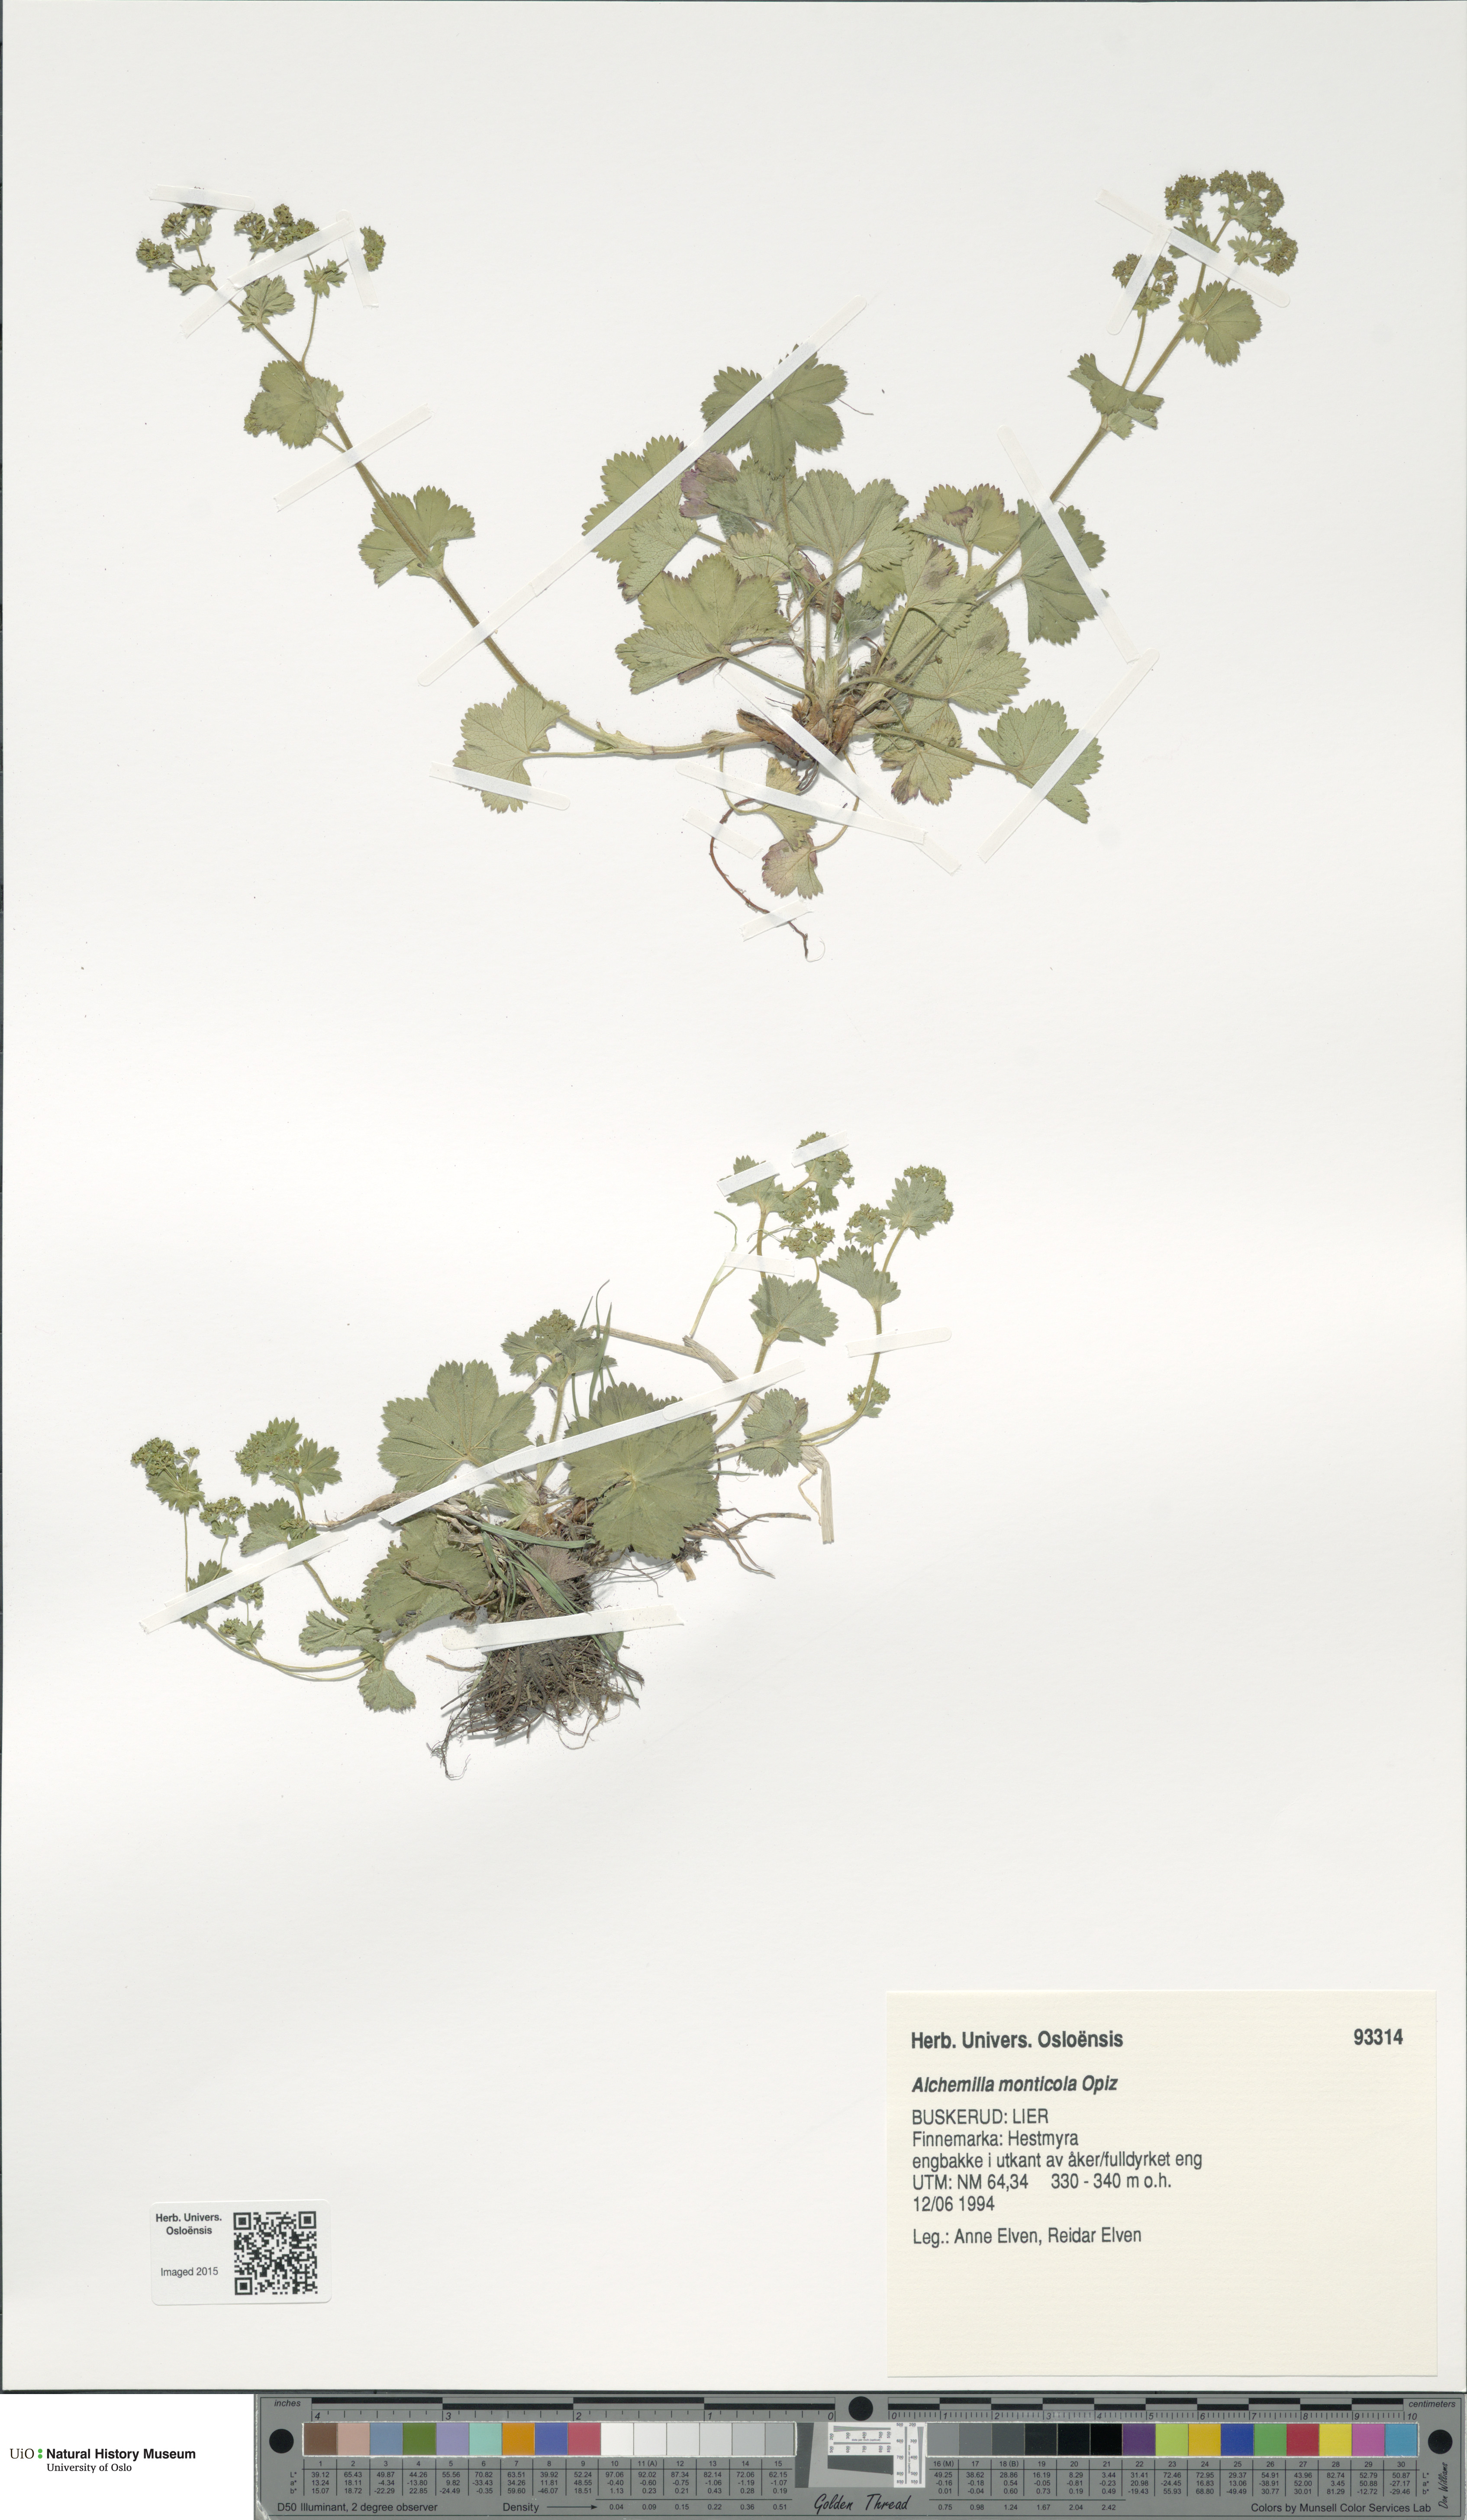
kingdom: Plantae
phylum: Tracheophyta
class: Magnoliopsida
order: Rosales
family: Rosaceae
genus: Alchemilla
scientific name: Alchemilla monticola
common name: Hairy lady's mantle
